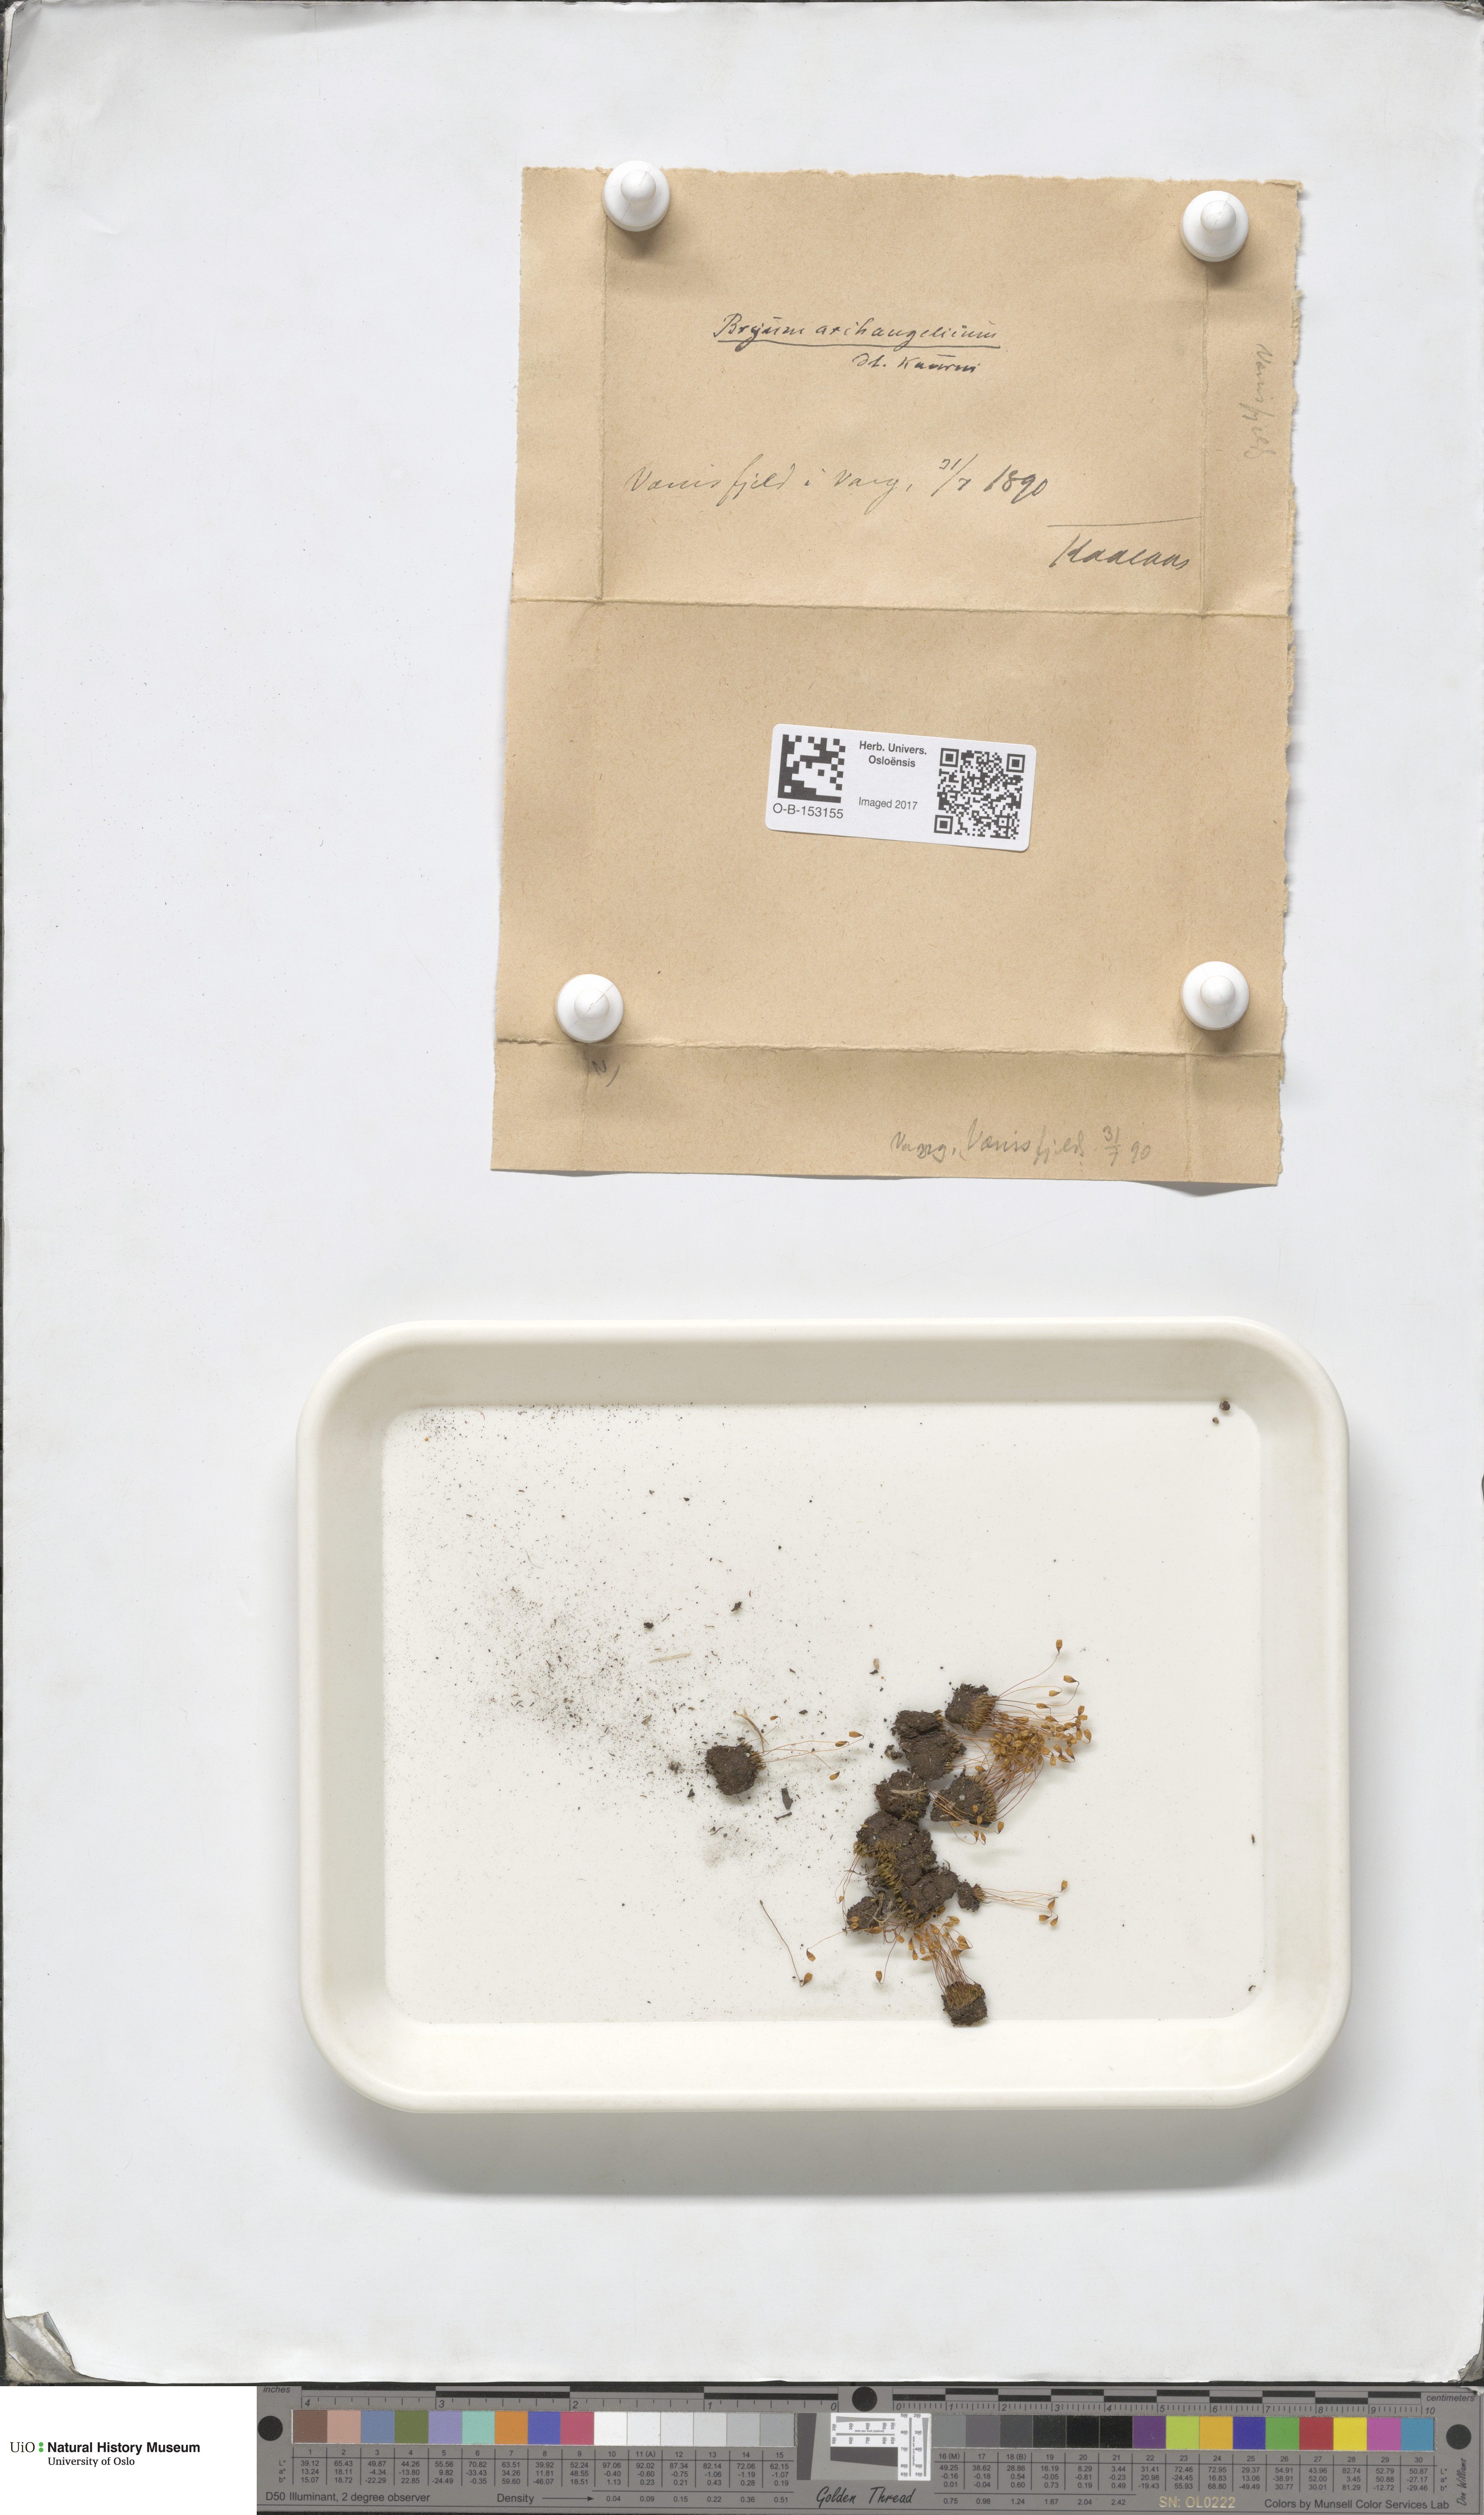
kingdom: Plantae
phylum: Bryophyta
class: Bryopsida
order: Bryales
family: Bryaceae
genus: Ptychostomum
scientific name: Ptychostomum inclinatum
